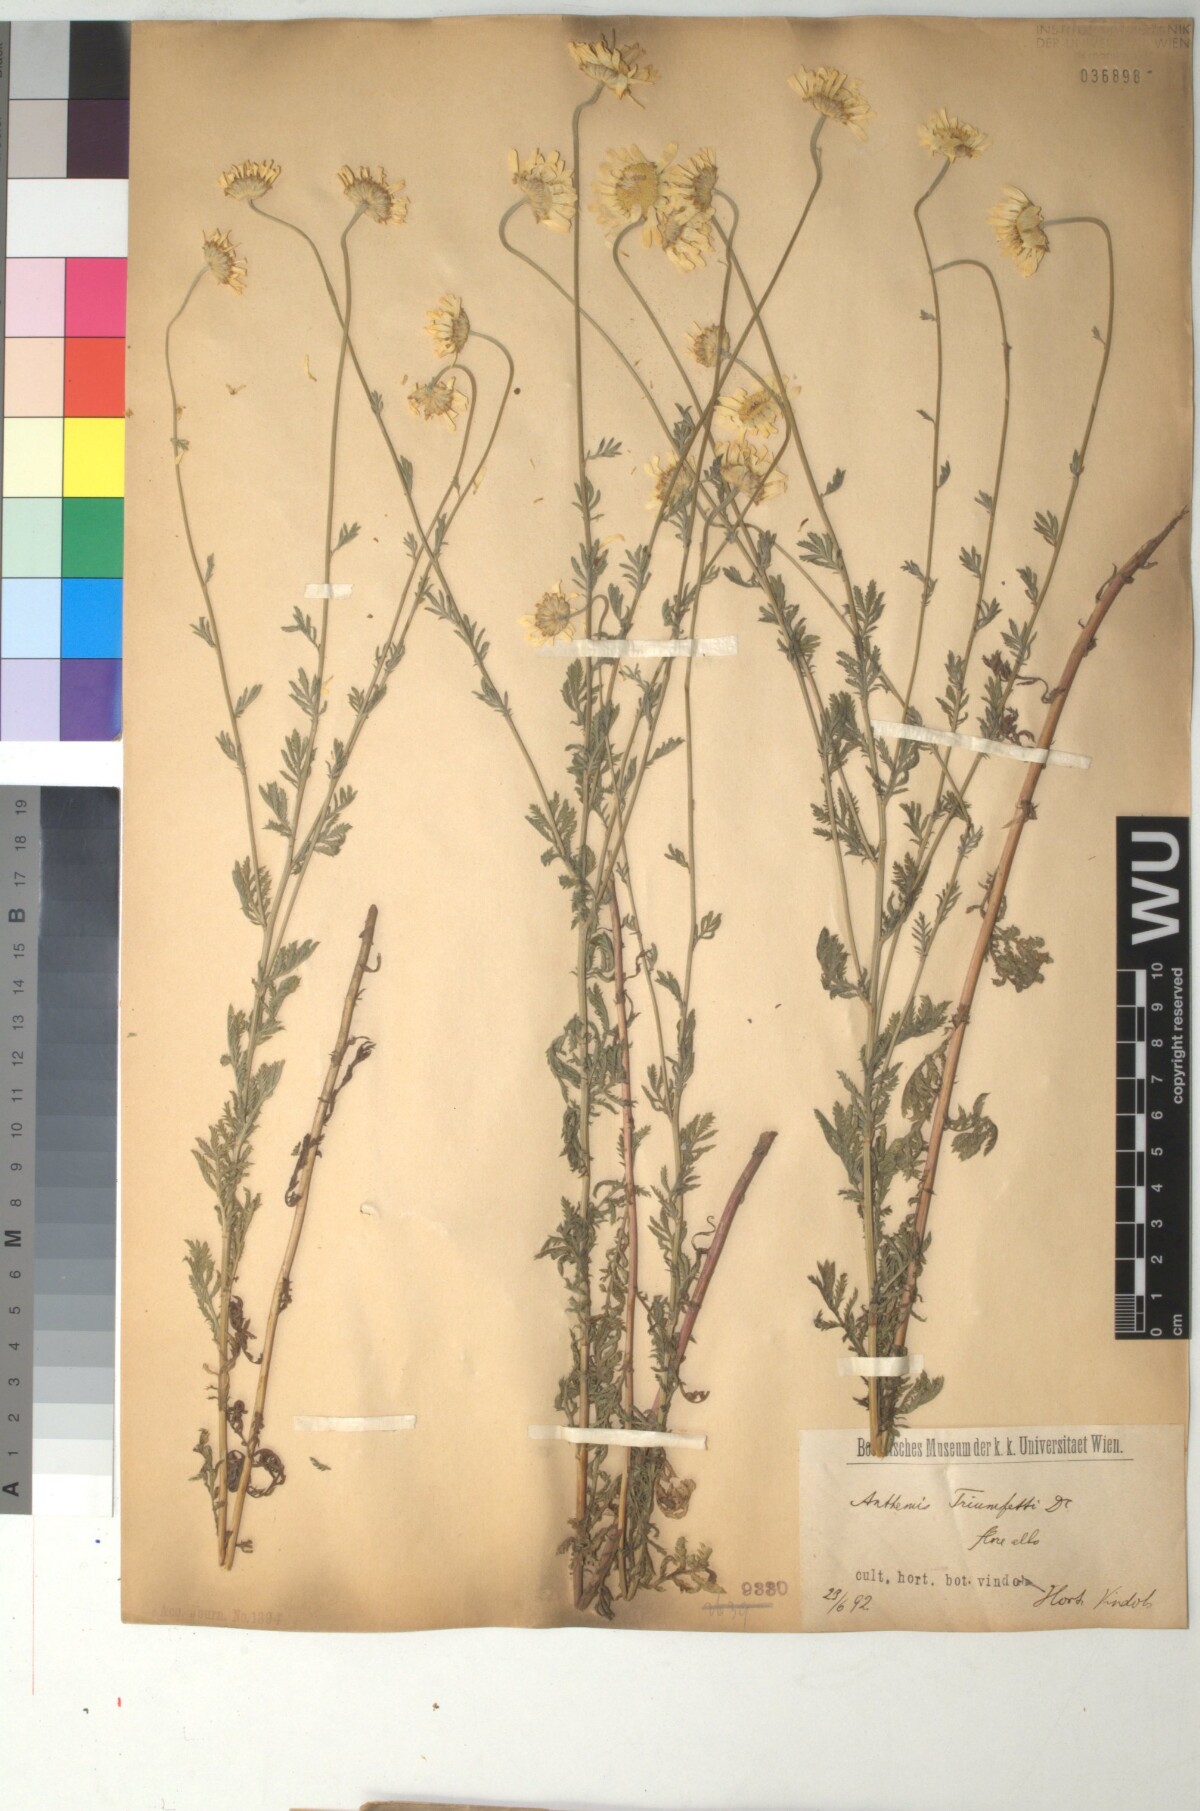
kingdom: Plantae
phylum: Tracheophyta
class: Magnoliopsida
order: Asterales
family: Asteraceae
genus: Cota
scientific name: Cota triumfetti
